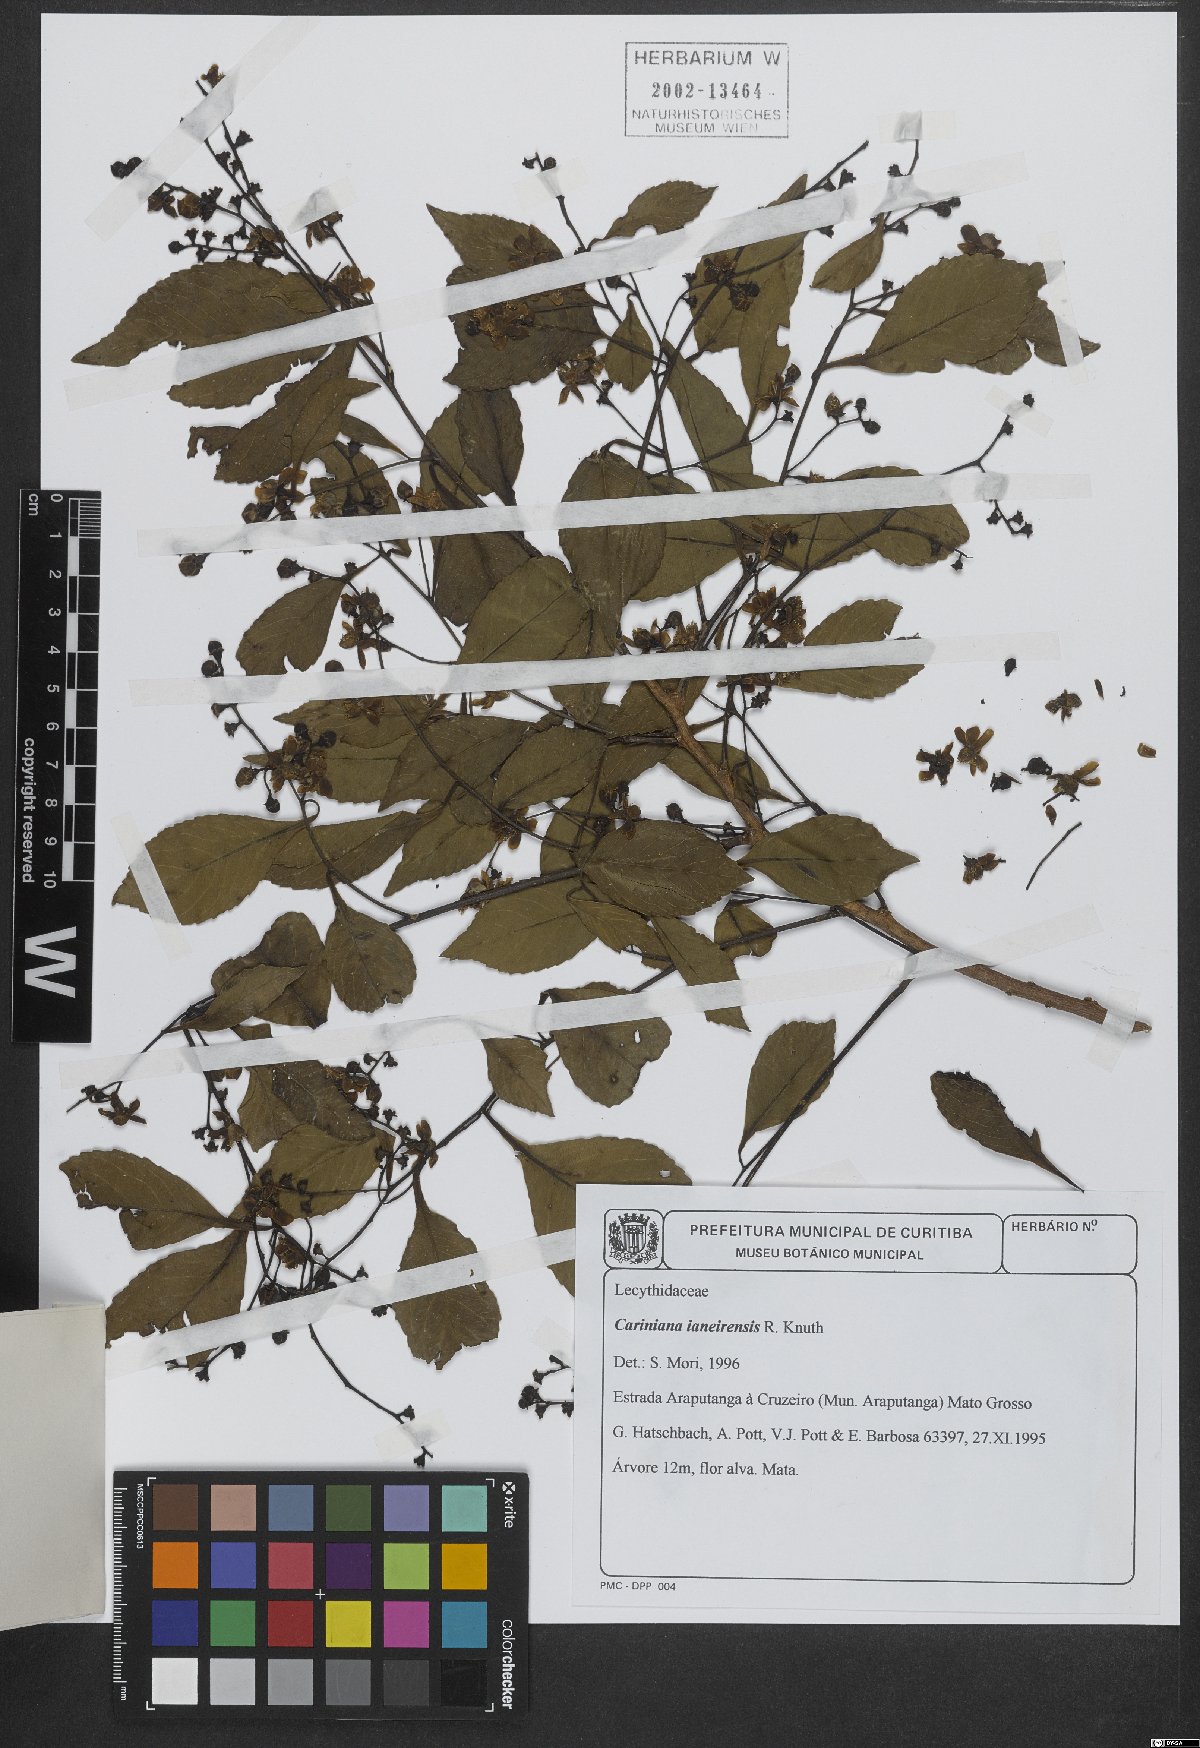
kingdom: Plantae
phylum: Tracheophyta
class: Magnoliopsida
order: Ericales
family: Lecythidaceae
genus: Cariniana
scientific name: Cariniana ianeirensis
